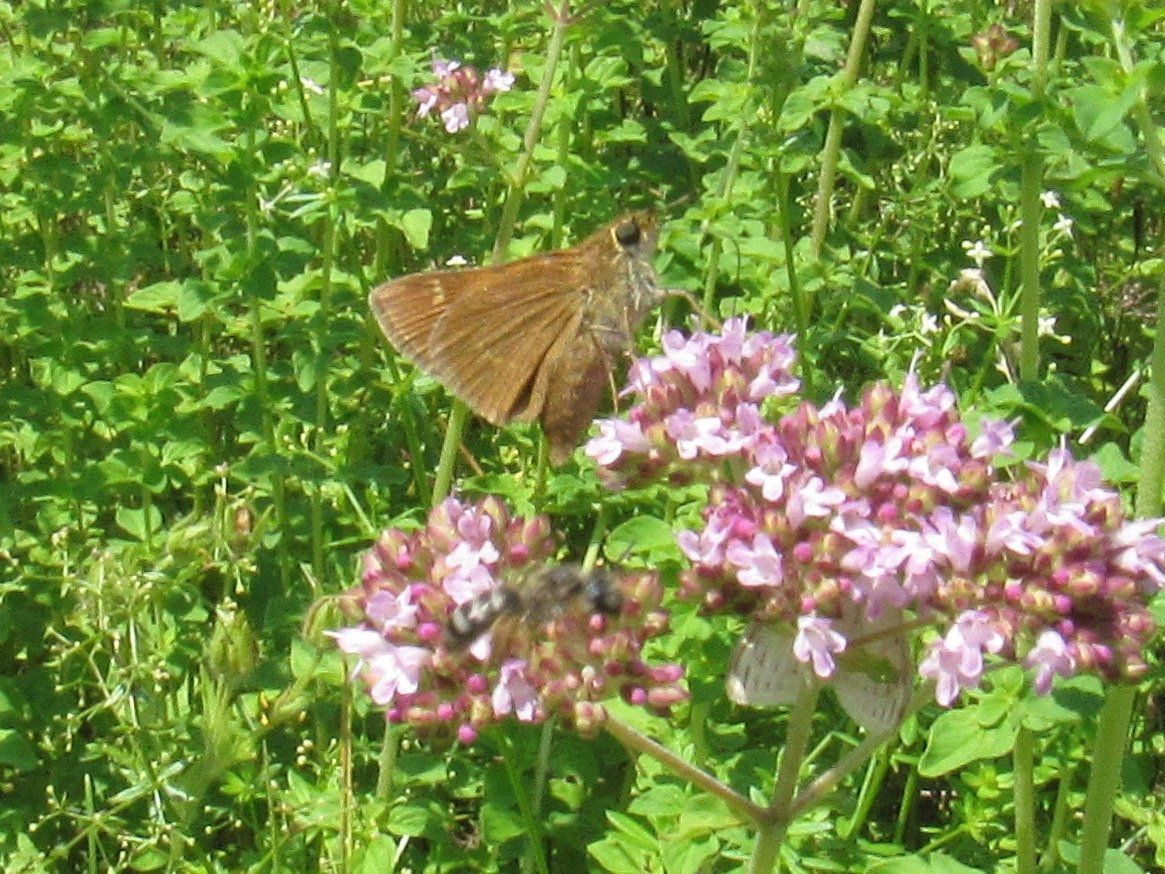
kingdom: Animalia
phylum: Arthropoda
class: Insecta
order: Lepidoptera
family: Hesperiidae
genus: Polites
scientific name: Polites themistocles
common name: Tawny-edged Skipper
